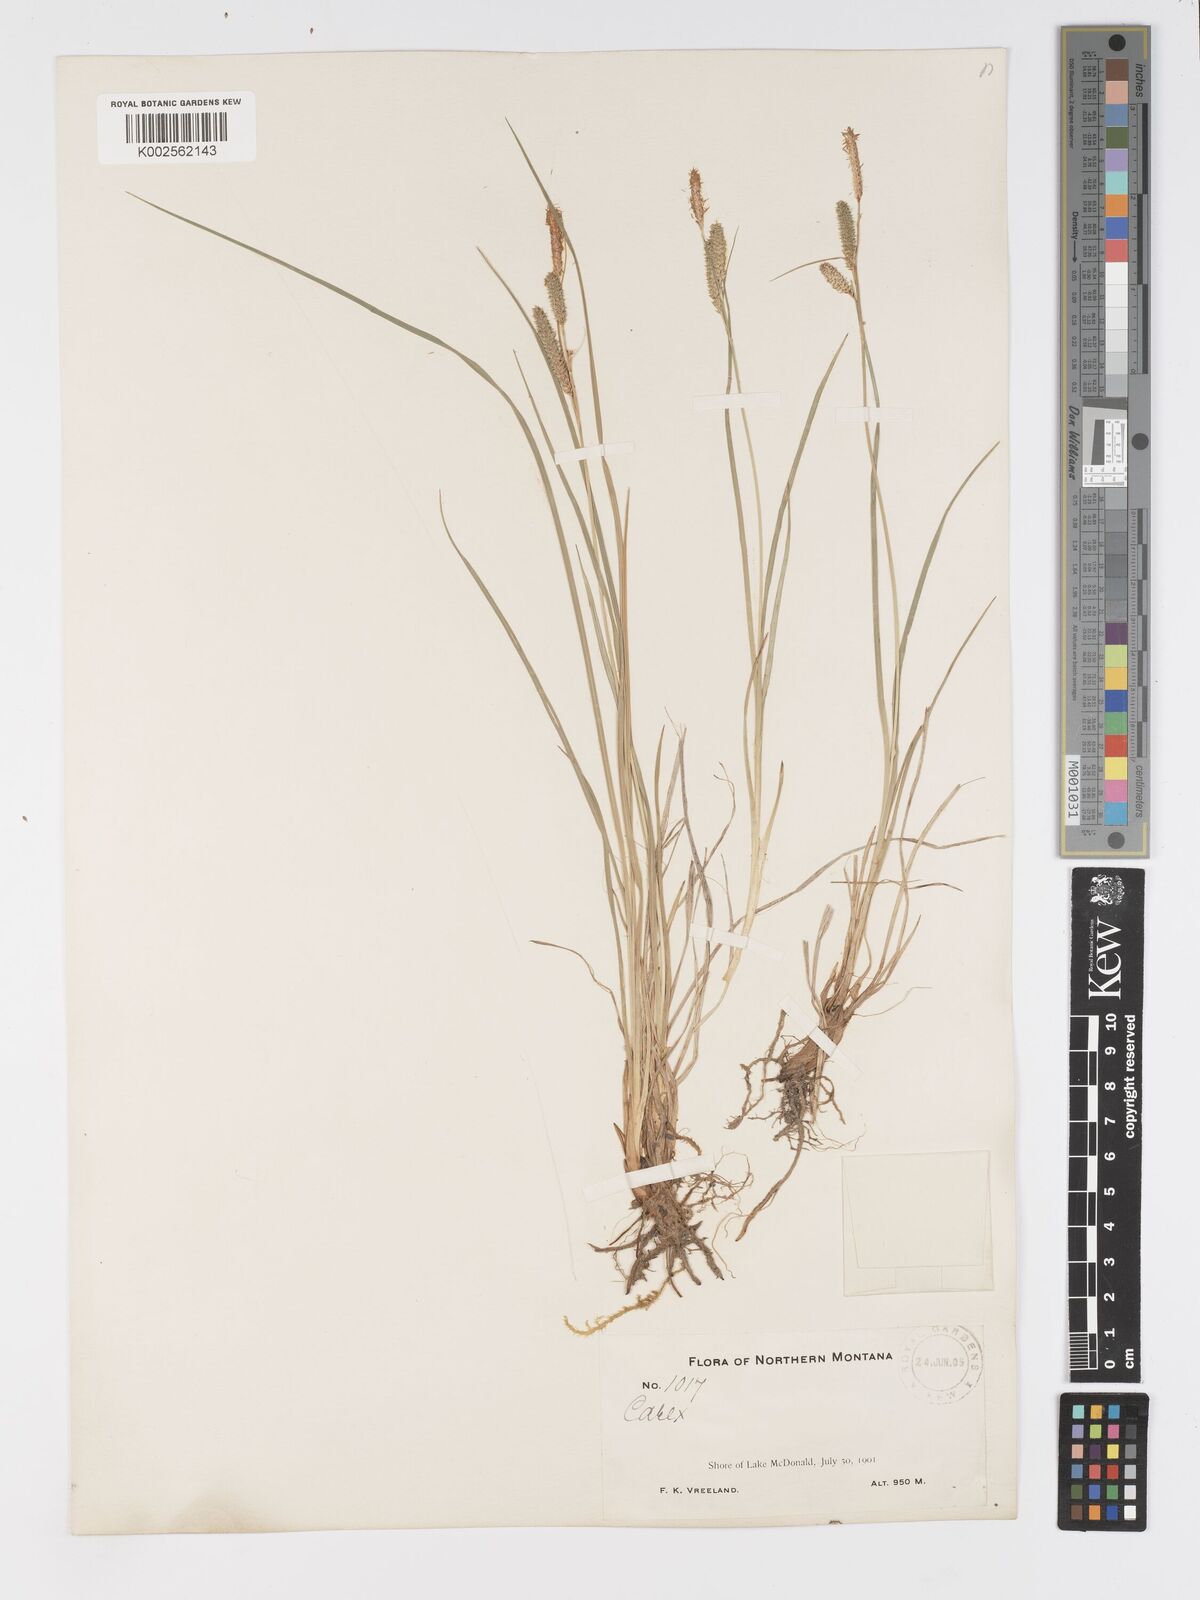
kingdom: Plantae
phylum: Tracheophyta
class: Liliopsida
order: Poales
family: Cyperaceae
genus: Carex
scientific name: Carex kelloggii
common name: Kellogg's sedge
